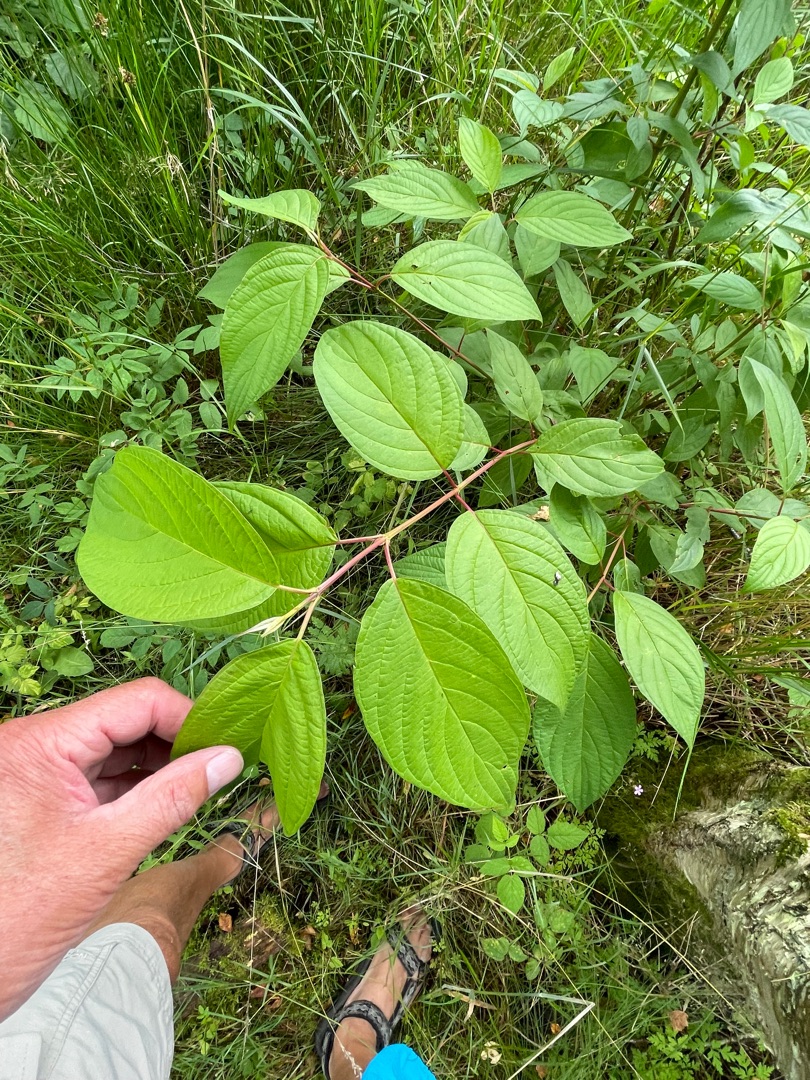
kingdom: Plantae
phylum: Tracheophyta
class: Magnoliopsida
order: Cornales
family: Cornaceae
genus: Cornus
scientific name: Cornus sericea
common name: Krybende kornel
